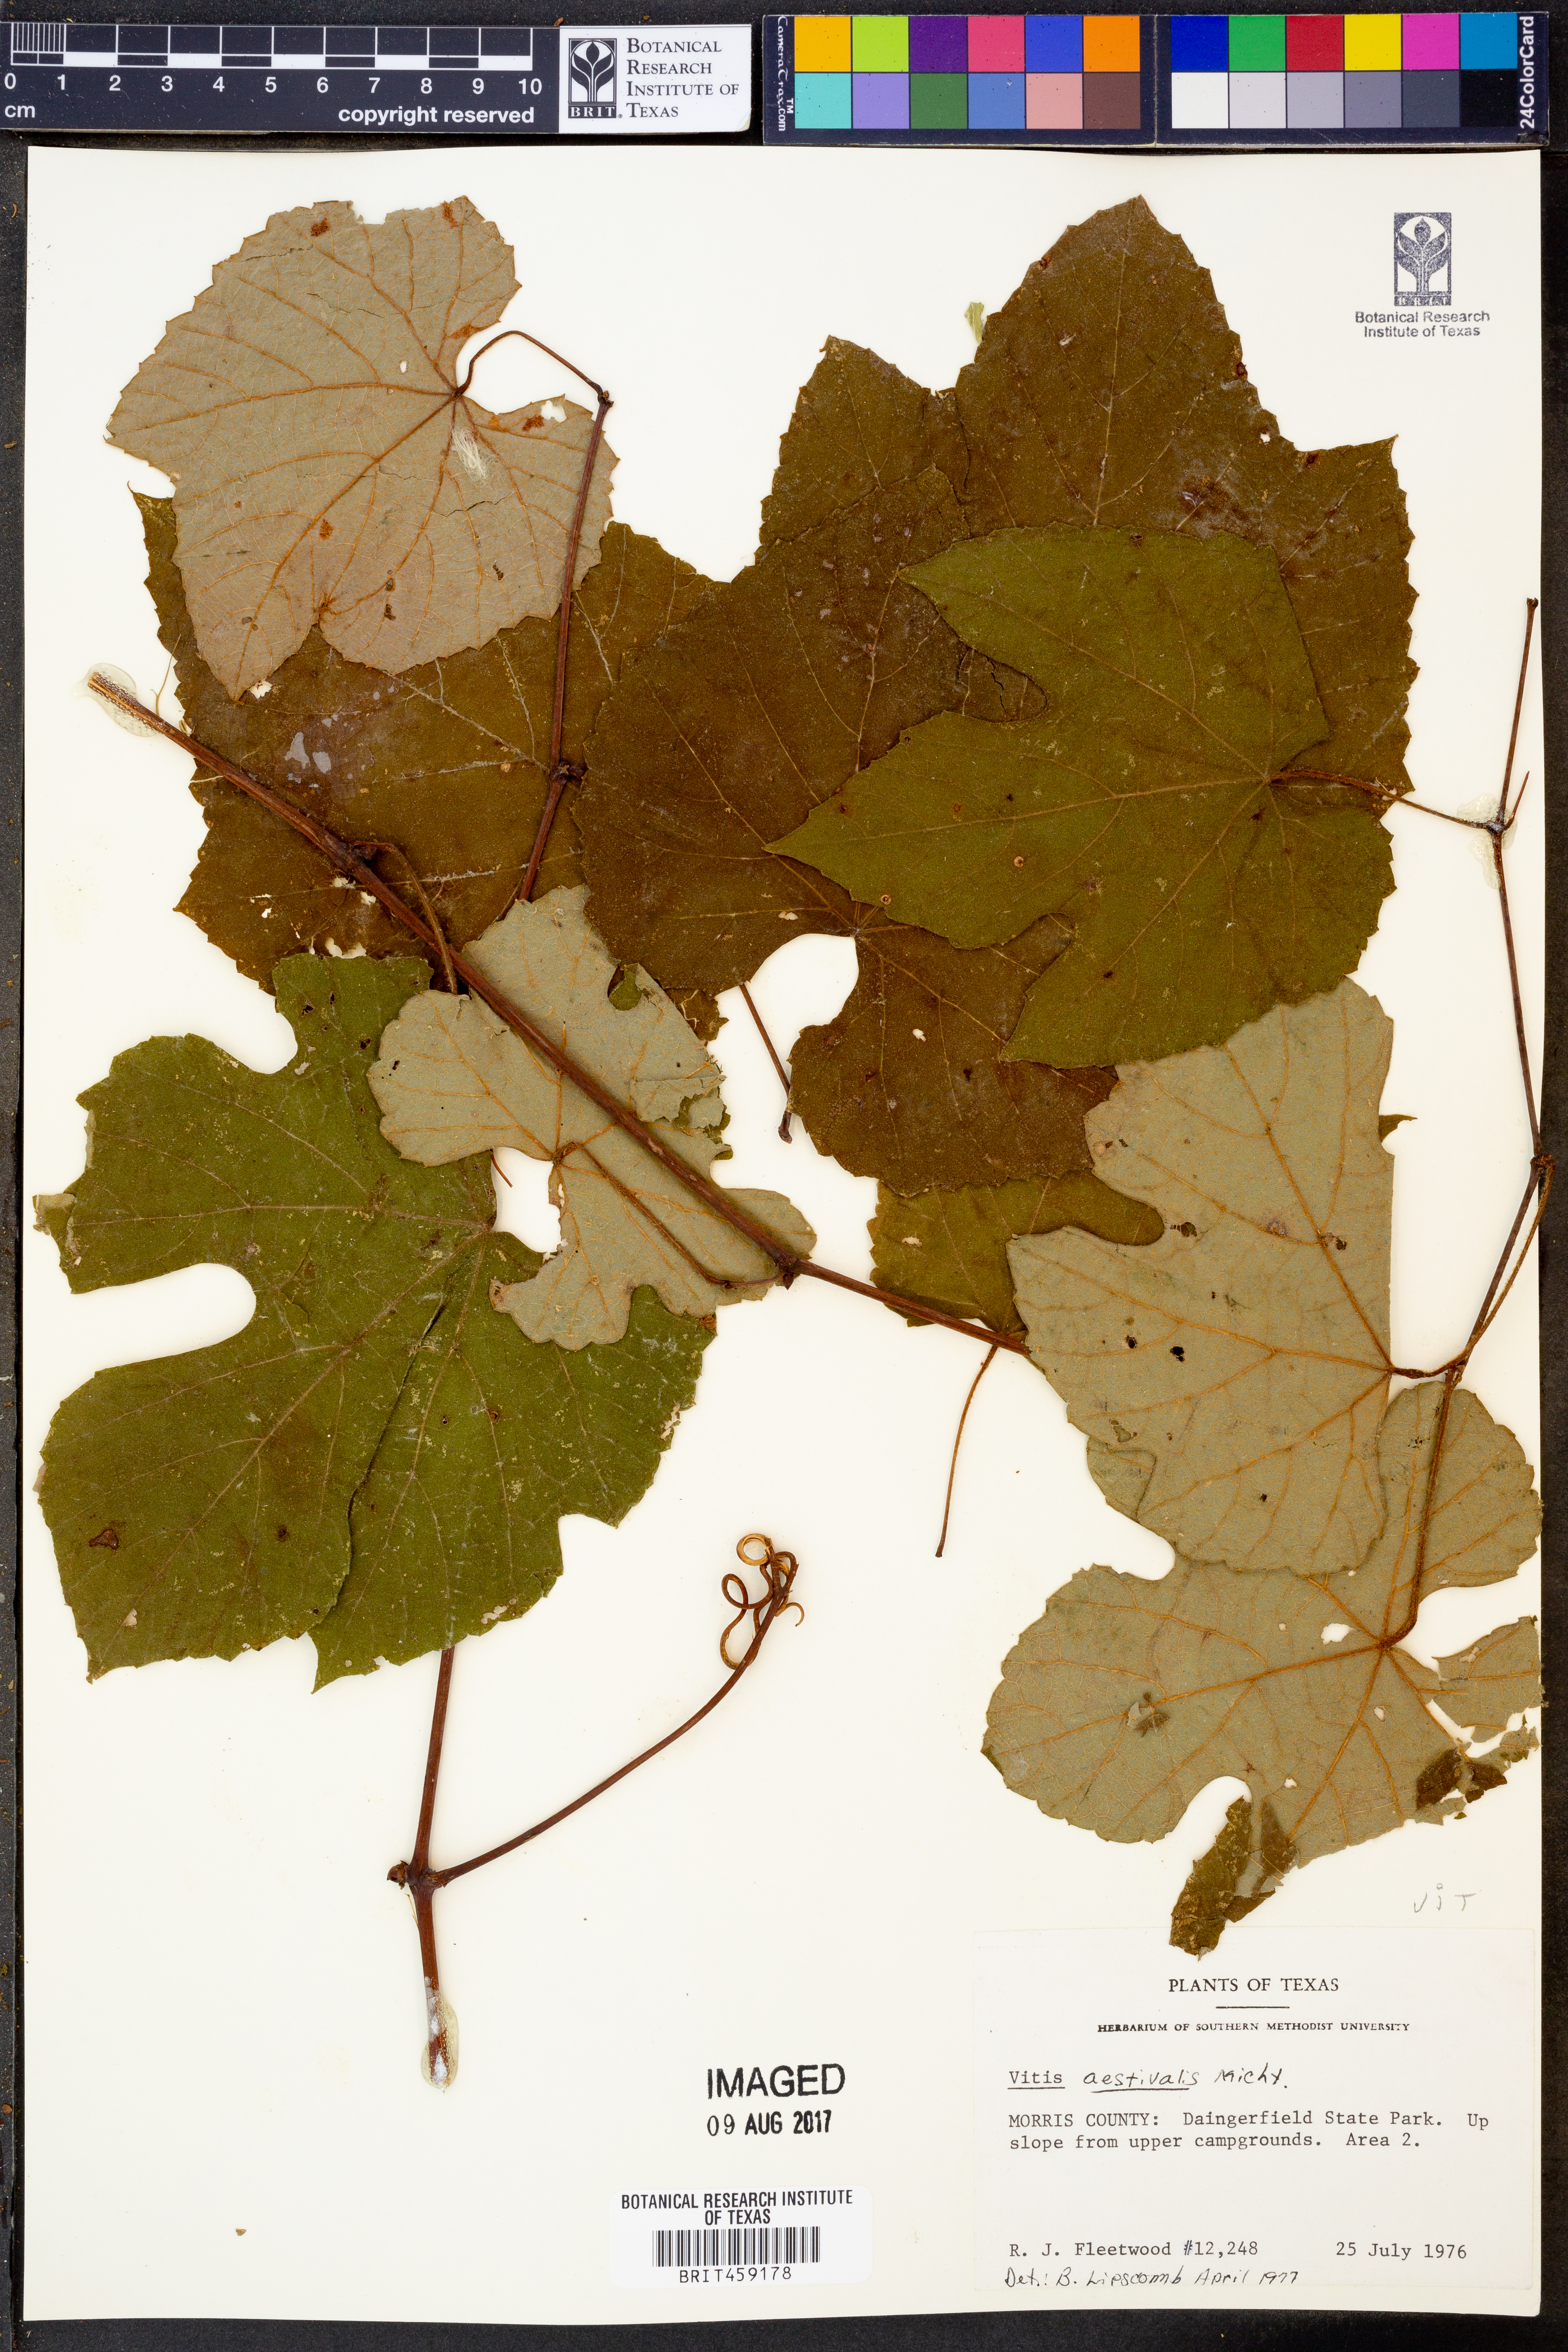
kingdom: Plantae
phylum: Tracheophyta
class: Magnoliopsida
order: Vitales
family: Vitaceae
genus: Vitis
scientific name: Vitis aestivalis
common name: Pigeon grape
